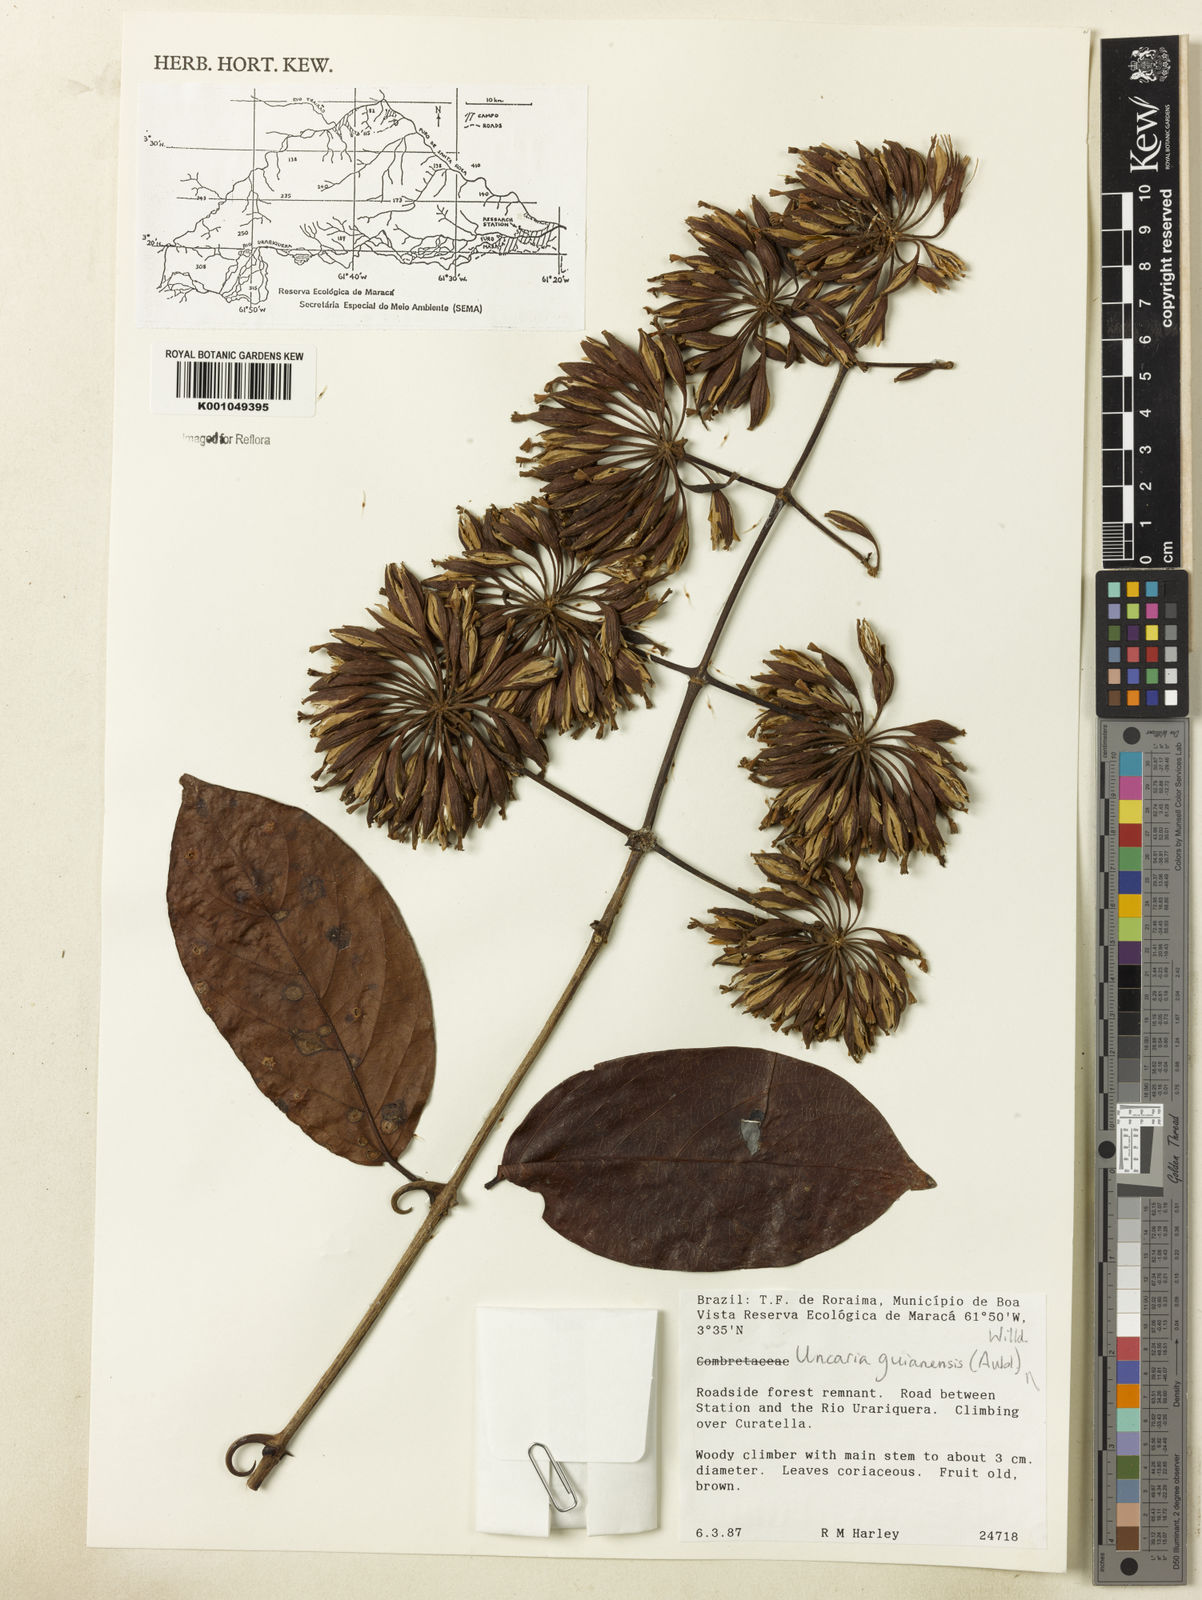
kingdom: Plantae
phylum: Tracheophyta
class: Magnoliopsida
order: Gentianales
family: Rubiaceae
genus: Uncaria
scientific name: Uncaria guianensis
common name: Cat's-claw
